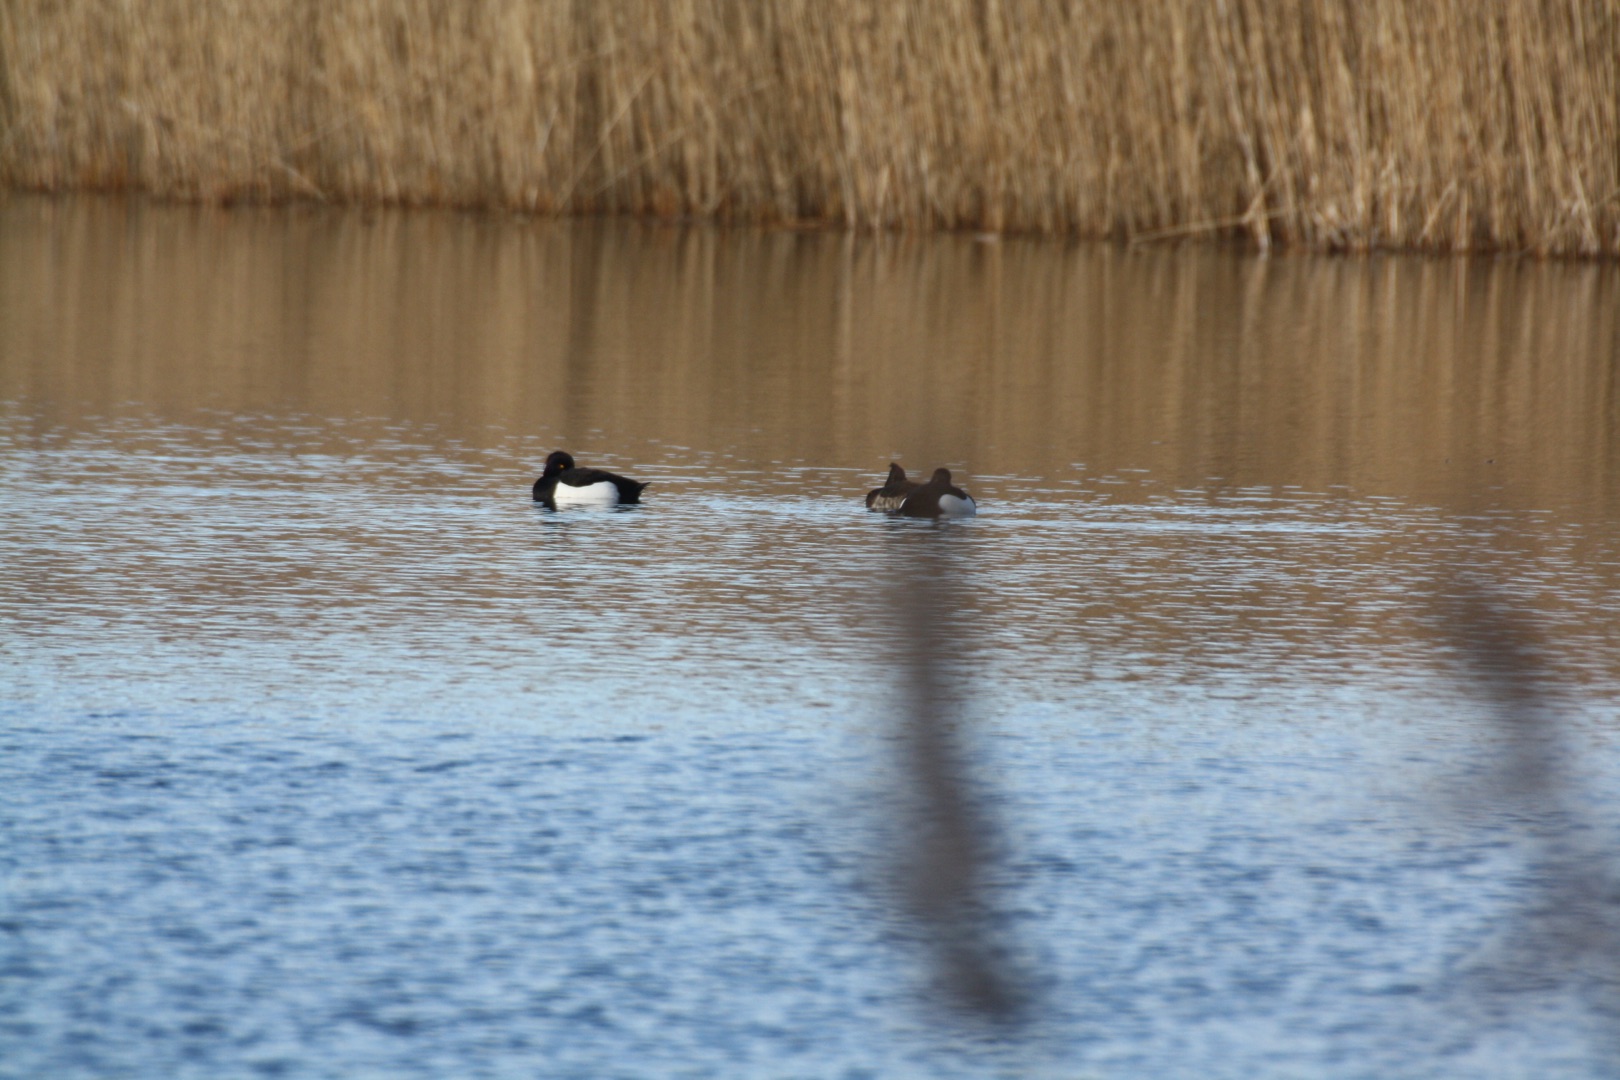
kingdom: Animalia
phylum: Chordata
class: Aves
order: Anseriformes
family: Anatidae
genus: Aythya
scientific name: Aythya fuligula
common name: Troldand
